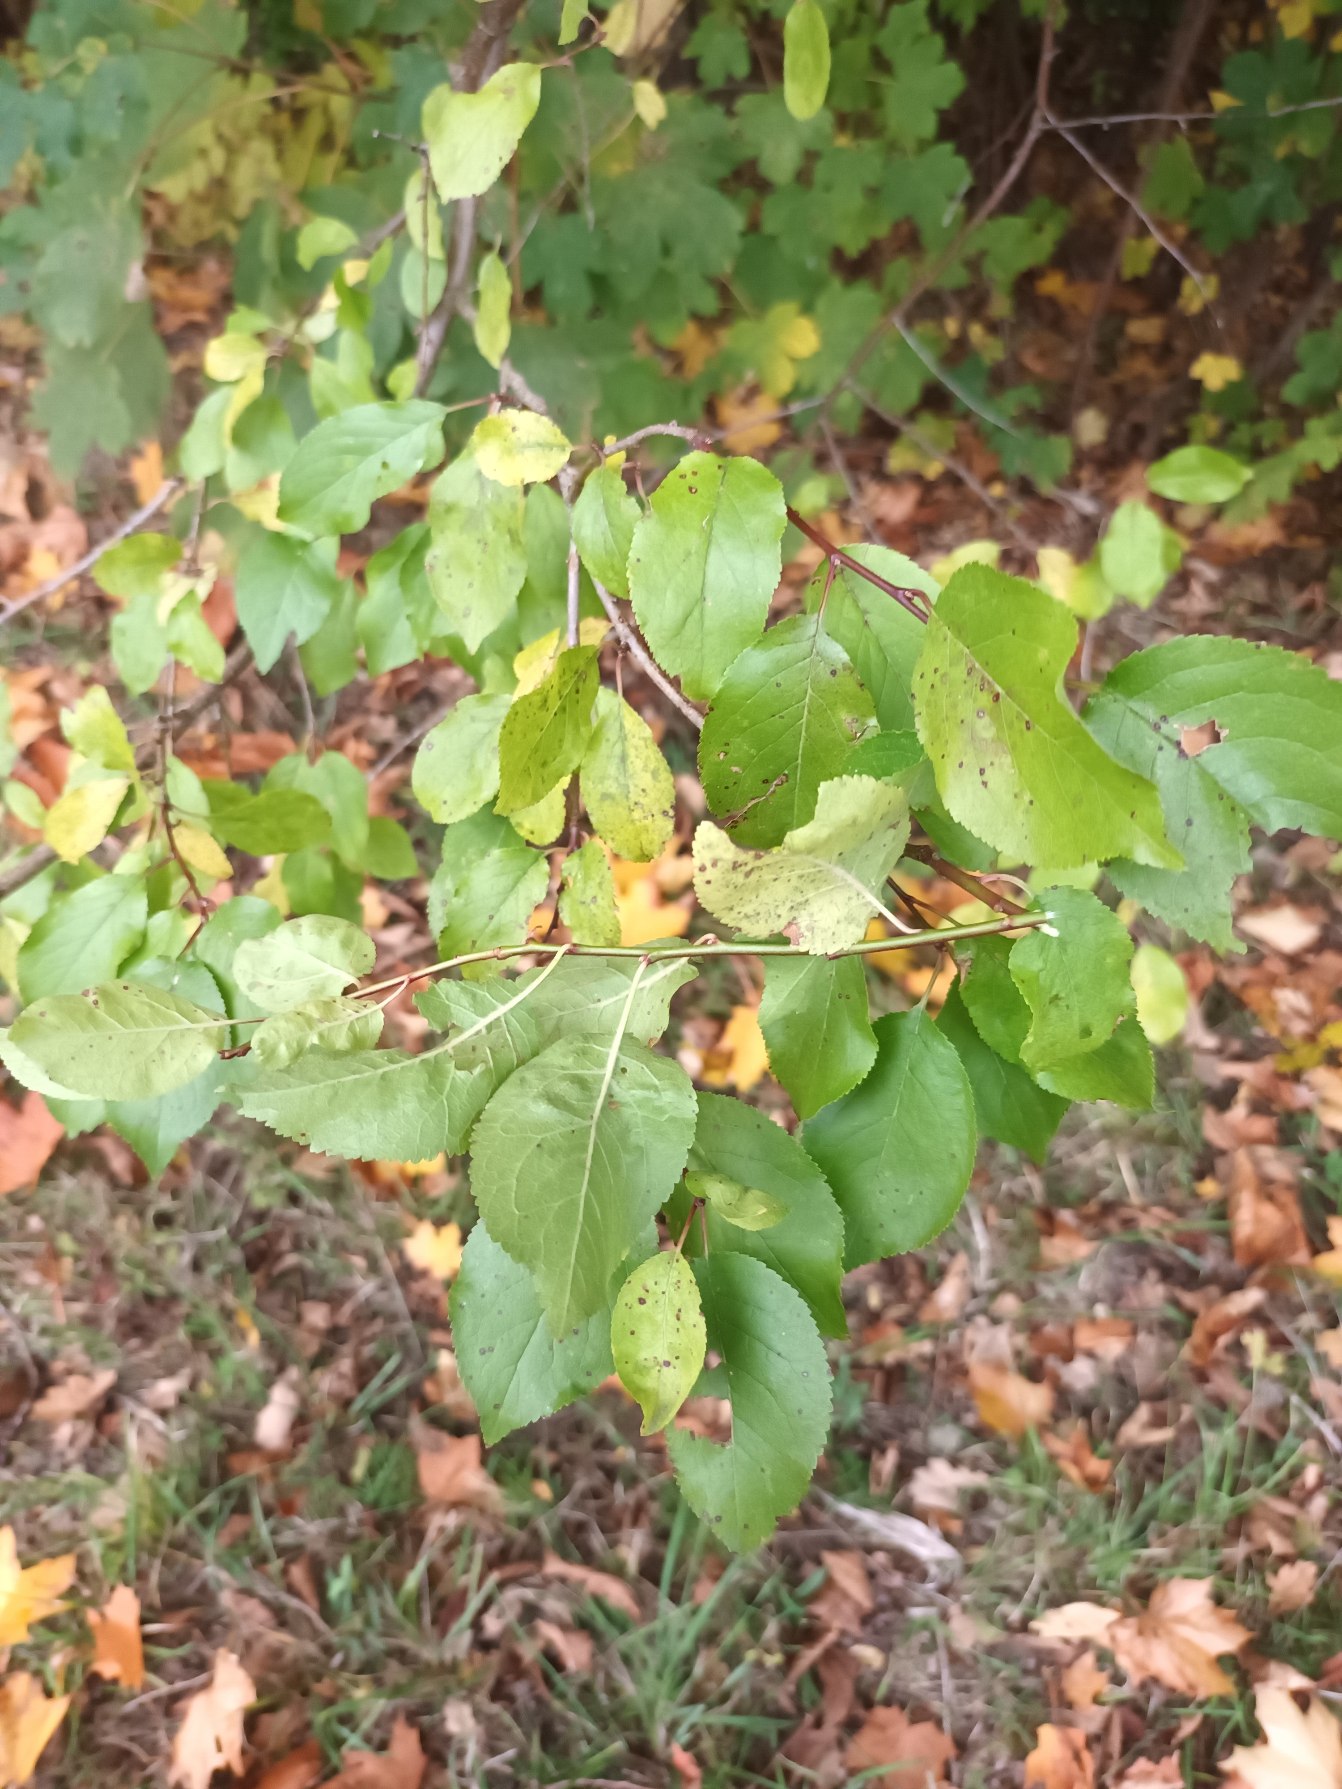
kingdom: Plantae
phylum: Tracheophyta
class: Magnoliopsida
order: Rosales
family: Rosaceae
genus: Prunus
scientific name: Prunus cerasifera
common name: Mirabel
